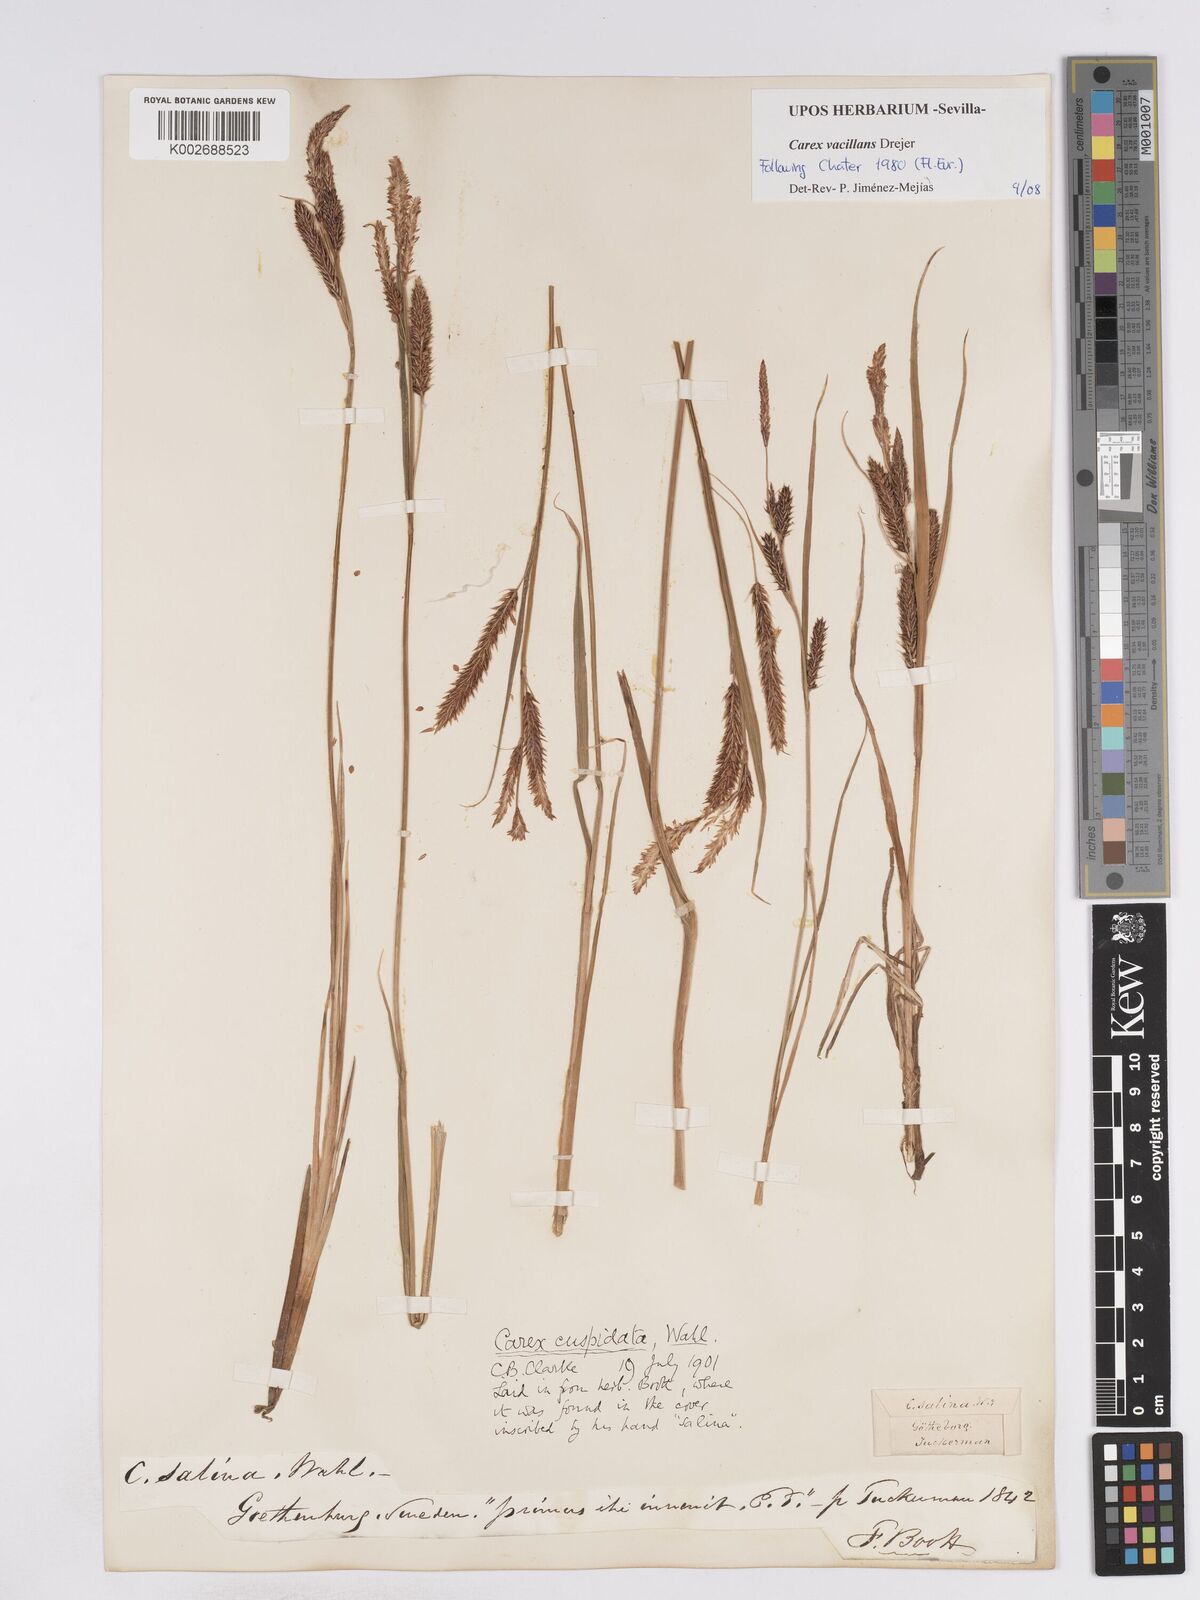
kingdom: Plantae
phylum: Tracheophyta
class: Liliopsida
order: Poales
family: Cyperaceae
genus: Carex
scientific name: Carex recta
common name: Estuarine sedge
